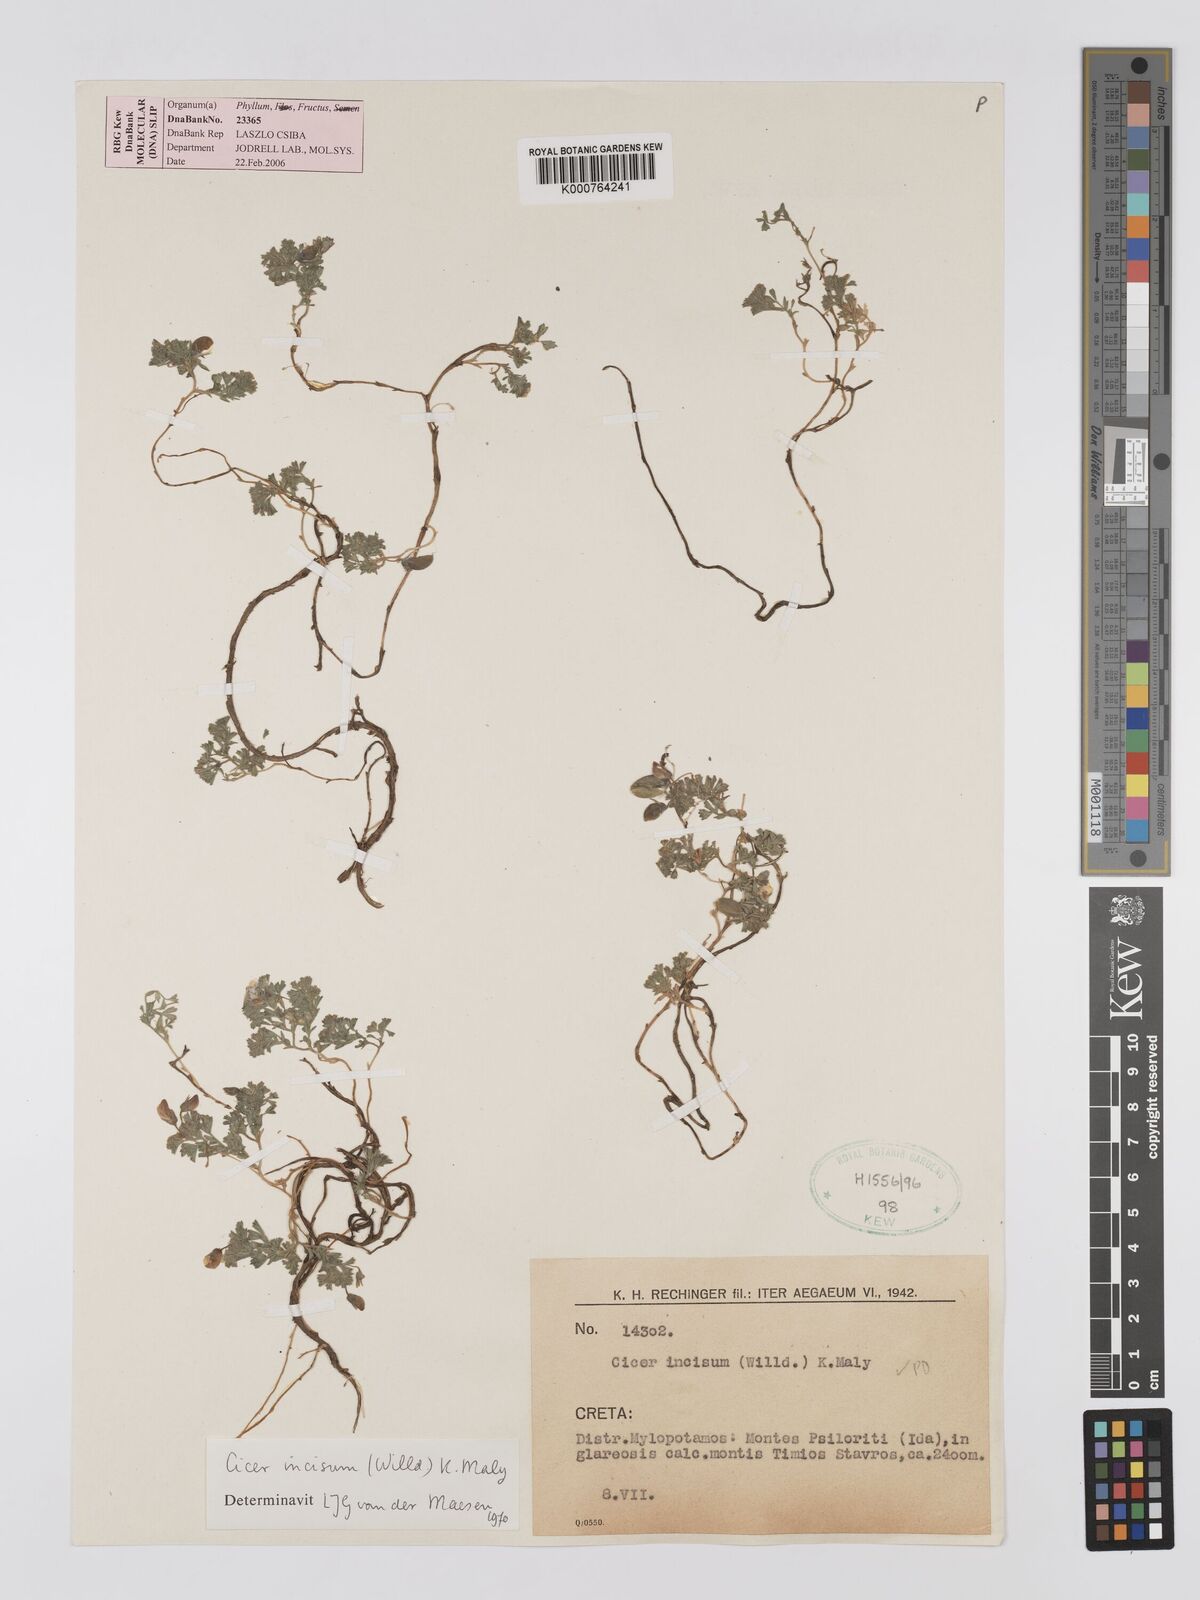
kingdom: Plantae
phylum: Tracheophyta
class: Magnoliopsida
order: Fabales
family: Fabaceae
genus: Cicer
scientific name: Cicer incisum
